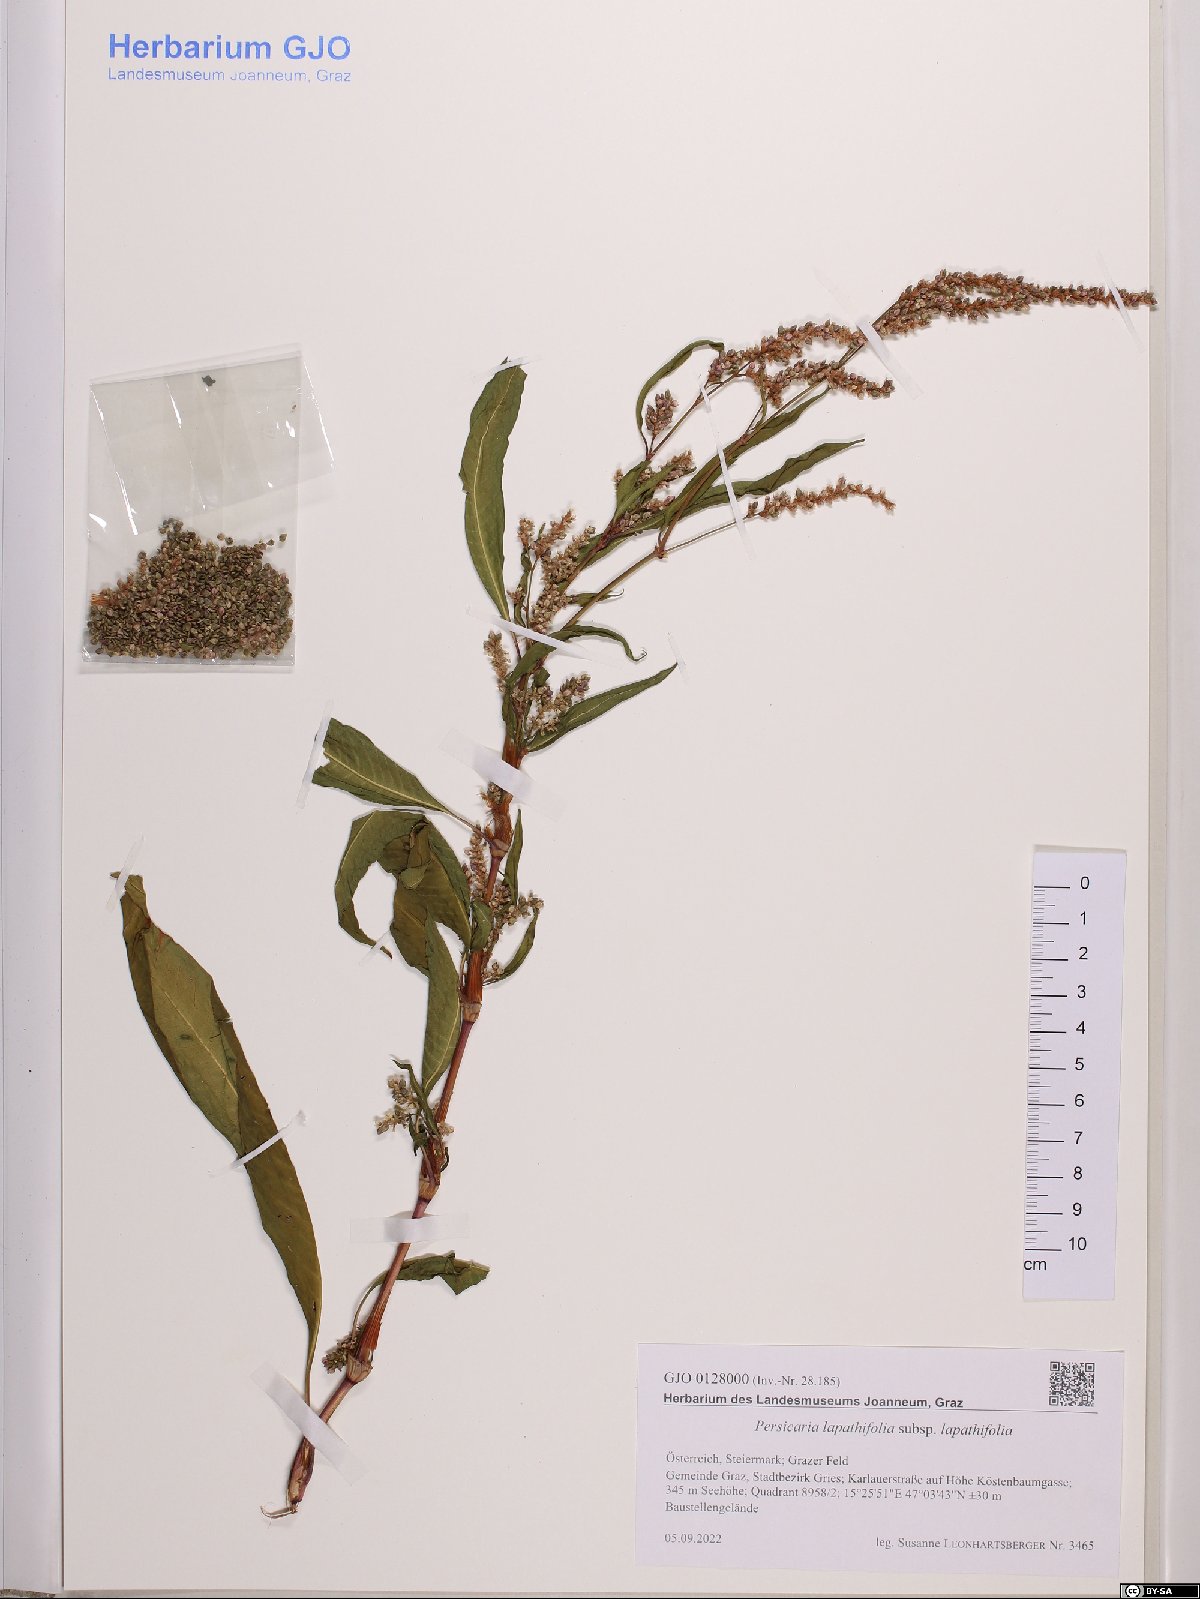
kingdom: Plantae
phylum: Tracheophyta
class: Magnoliopsida
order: Caryophyllales
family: Polygonaceae
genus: Persicaria
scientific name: Persicaria lapathifolia
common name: Curlytop knotweed
